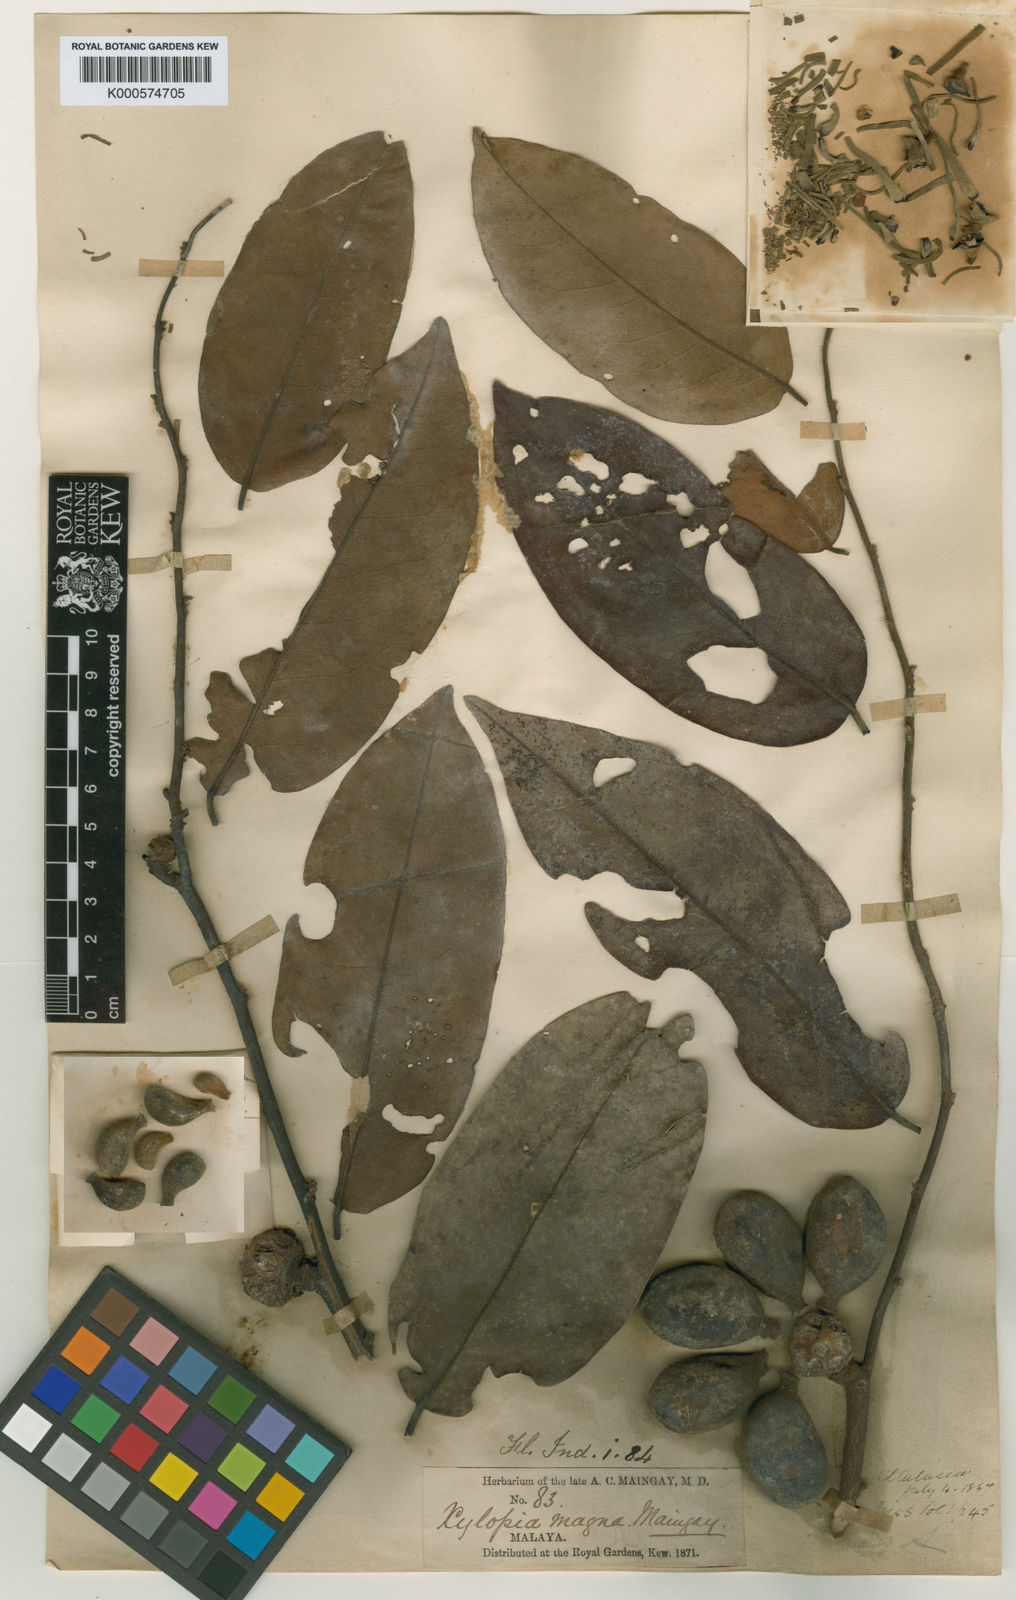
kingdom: Plantae
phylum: Tracheophyta
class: Magnoliopsida
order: Magnoliales
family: Annonaceae
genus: Xylopia
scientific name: Xylopia magna
